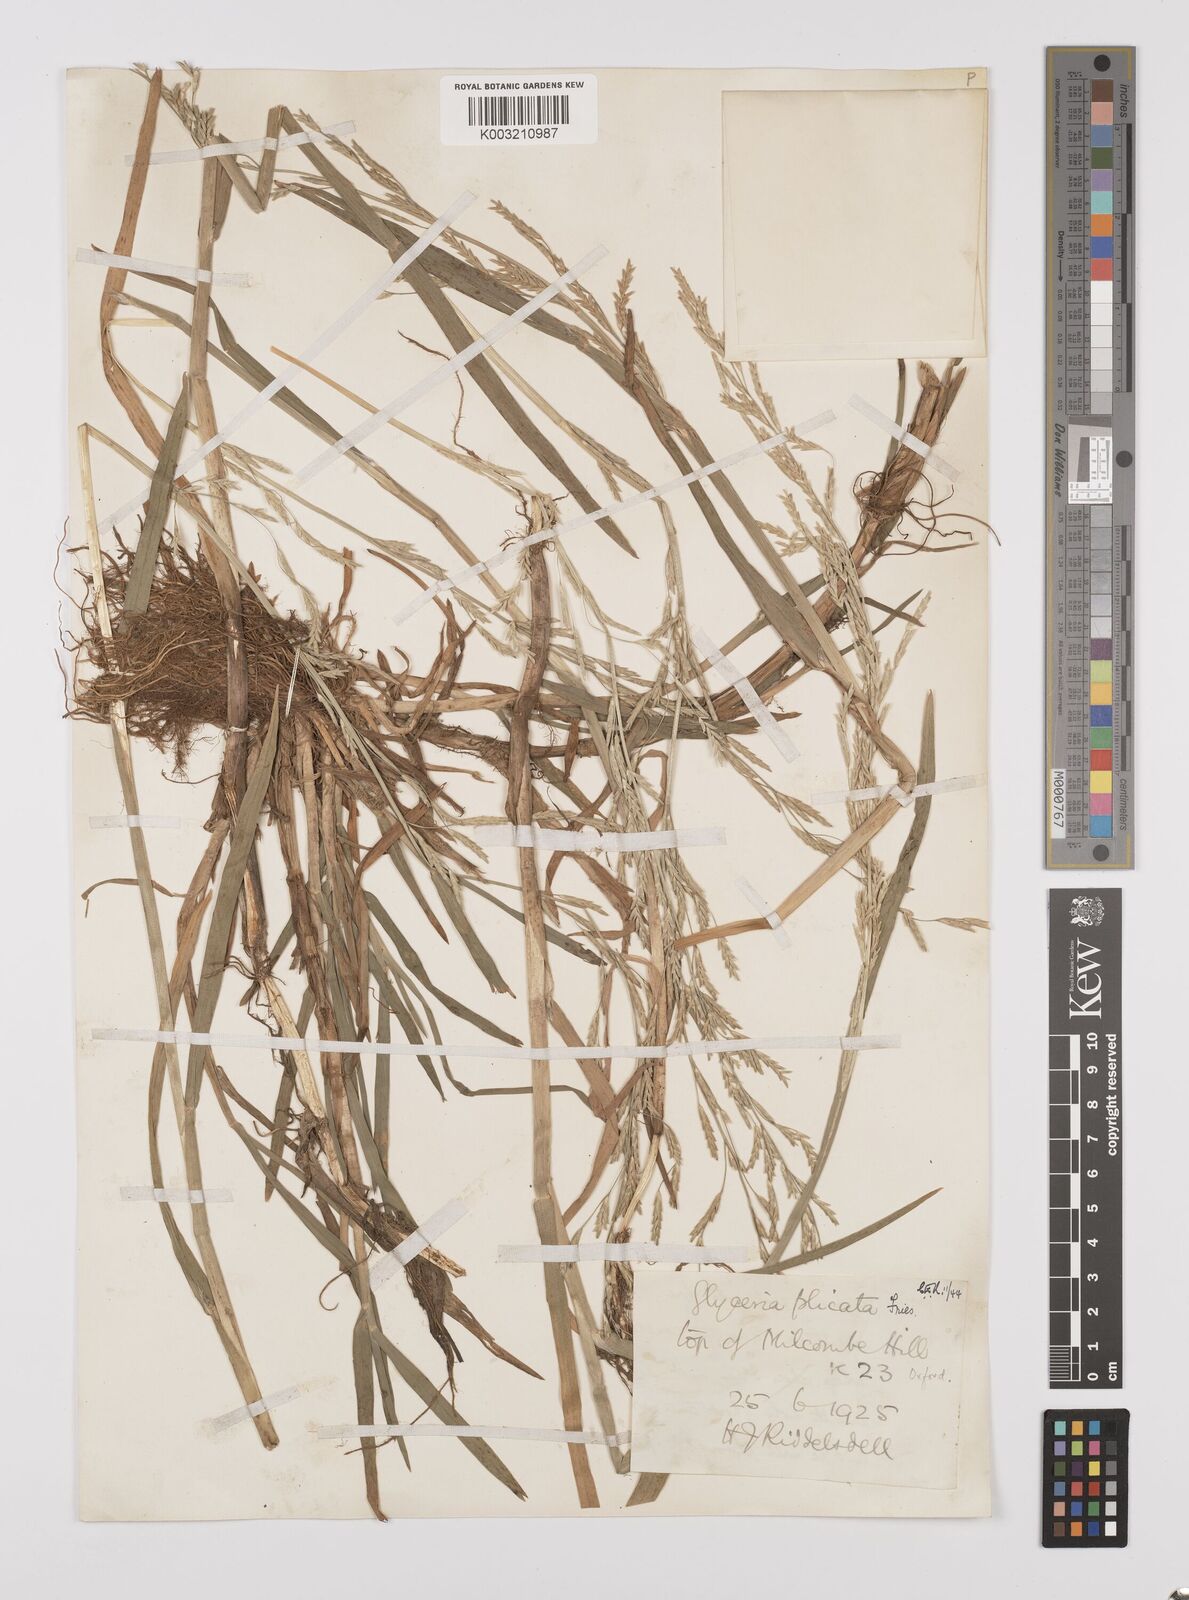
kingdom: Plantae
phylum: Tracheophyta
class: Liliopsida
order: Poales
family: Poaceae
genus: Glyceria
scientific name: Glyceria notata
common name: Plicate sweet-grass
